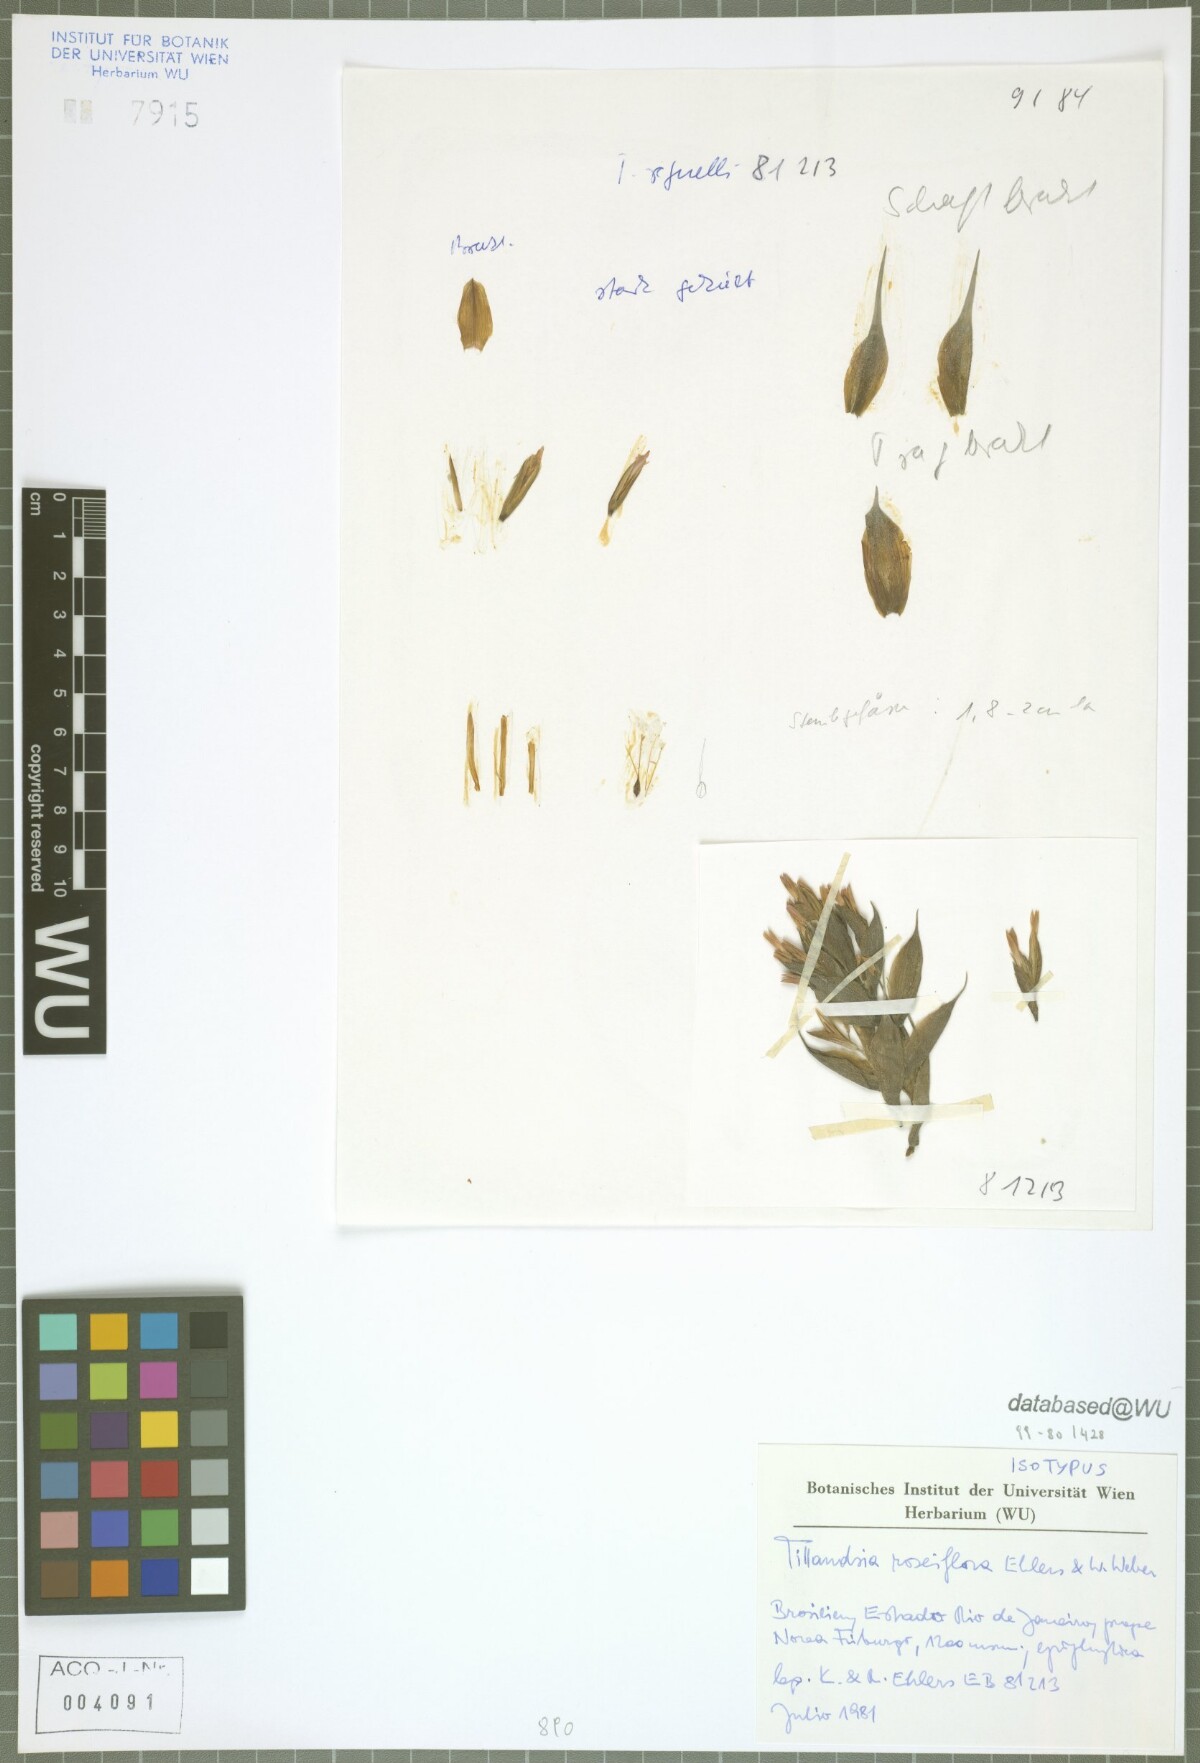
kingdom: Plantae
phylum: Tracheophyta
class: Liliopsida
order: Poales
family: Bromeliaceae
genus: Tillandsia
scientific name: Tillandsia roseiflora
